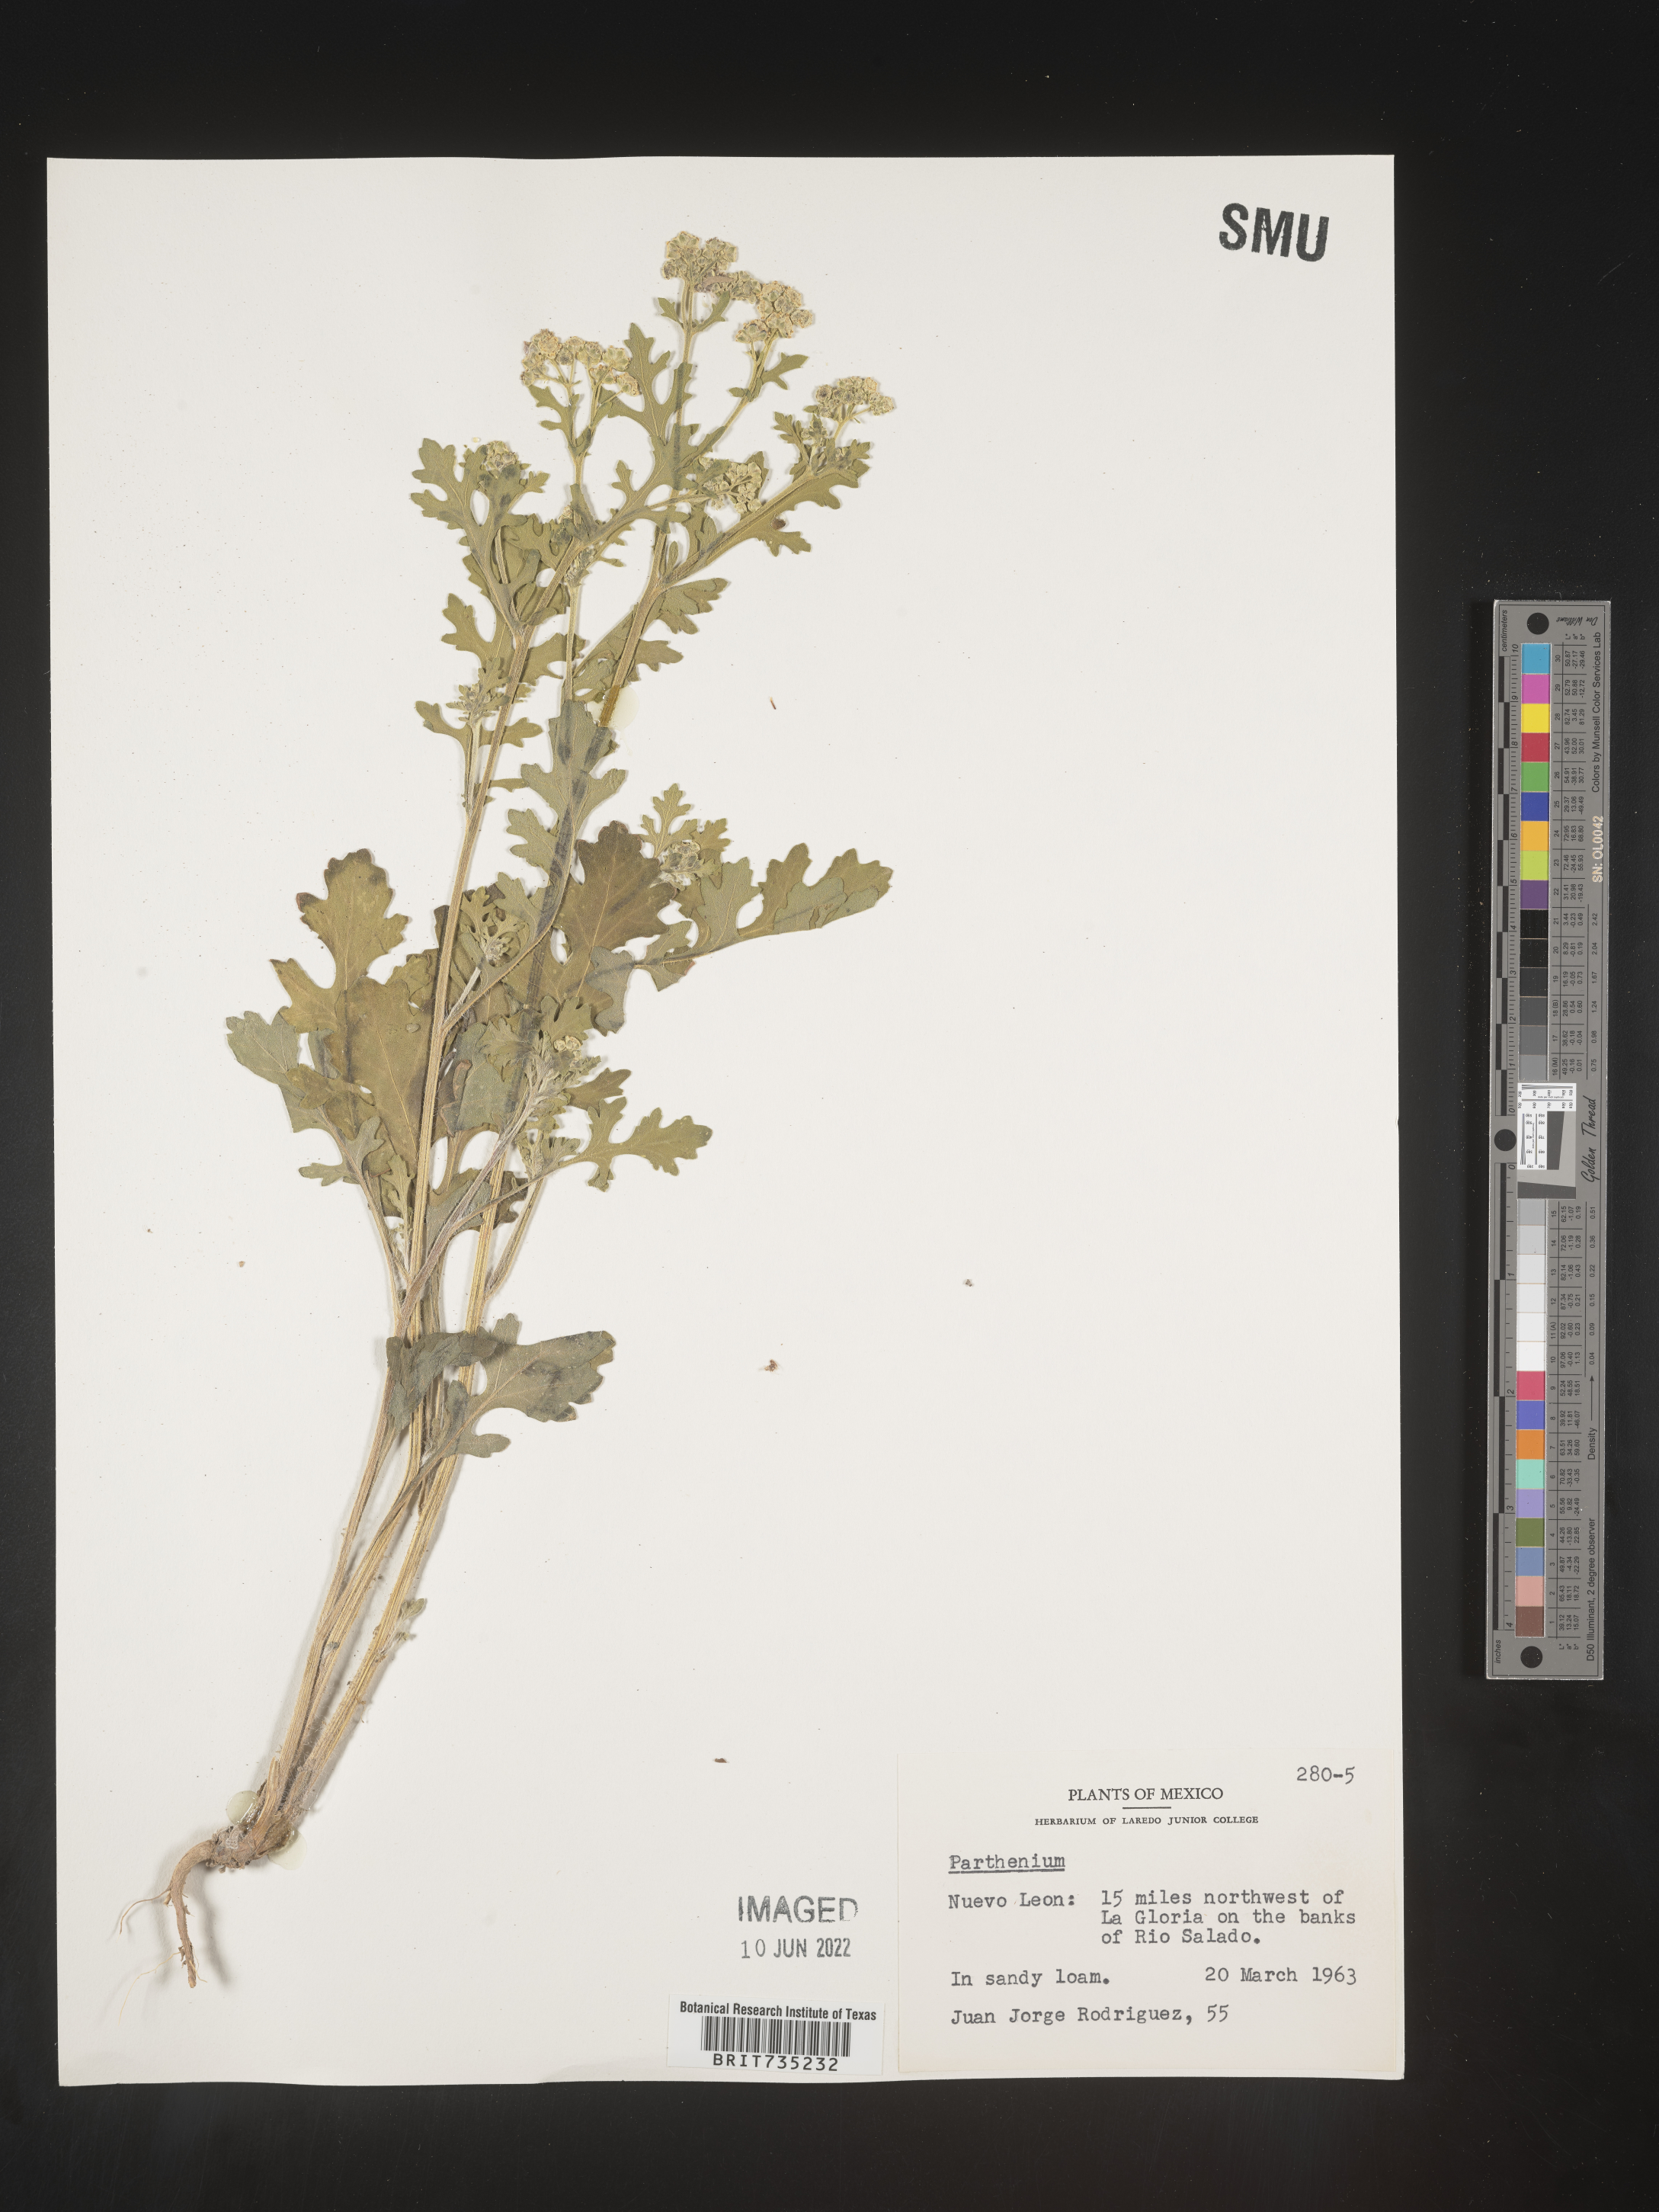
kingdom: Plantae
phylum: Tracheophyta
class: Magnoliopsida
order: Asterales
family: Asteraceae
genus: Parthenium
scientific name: Parthenium
